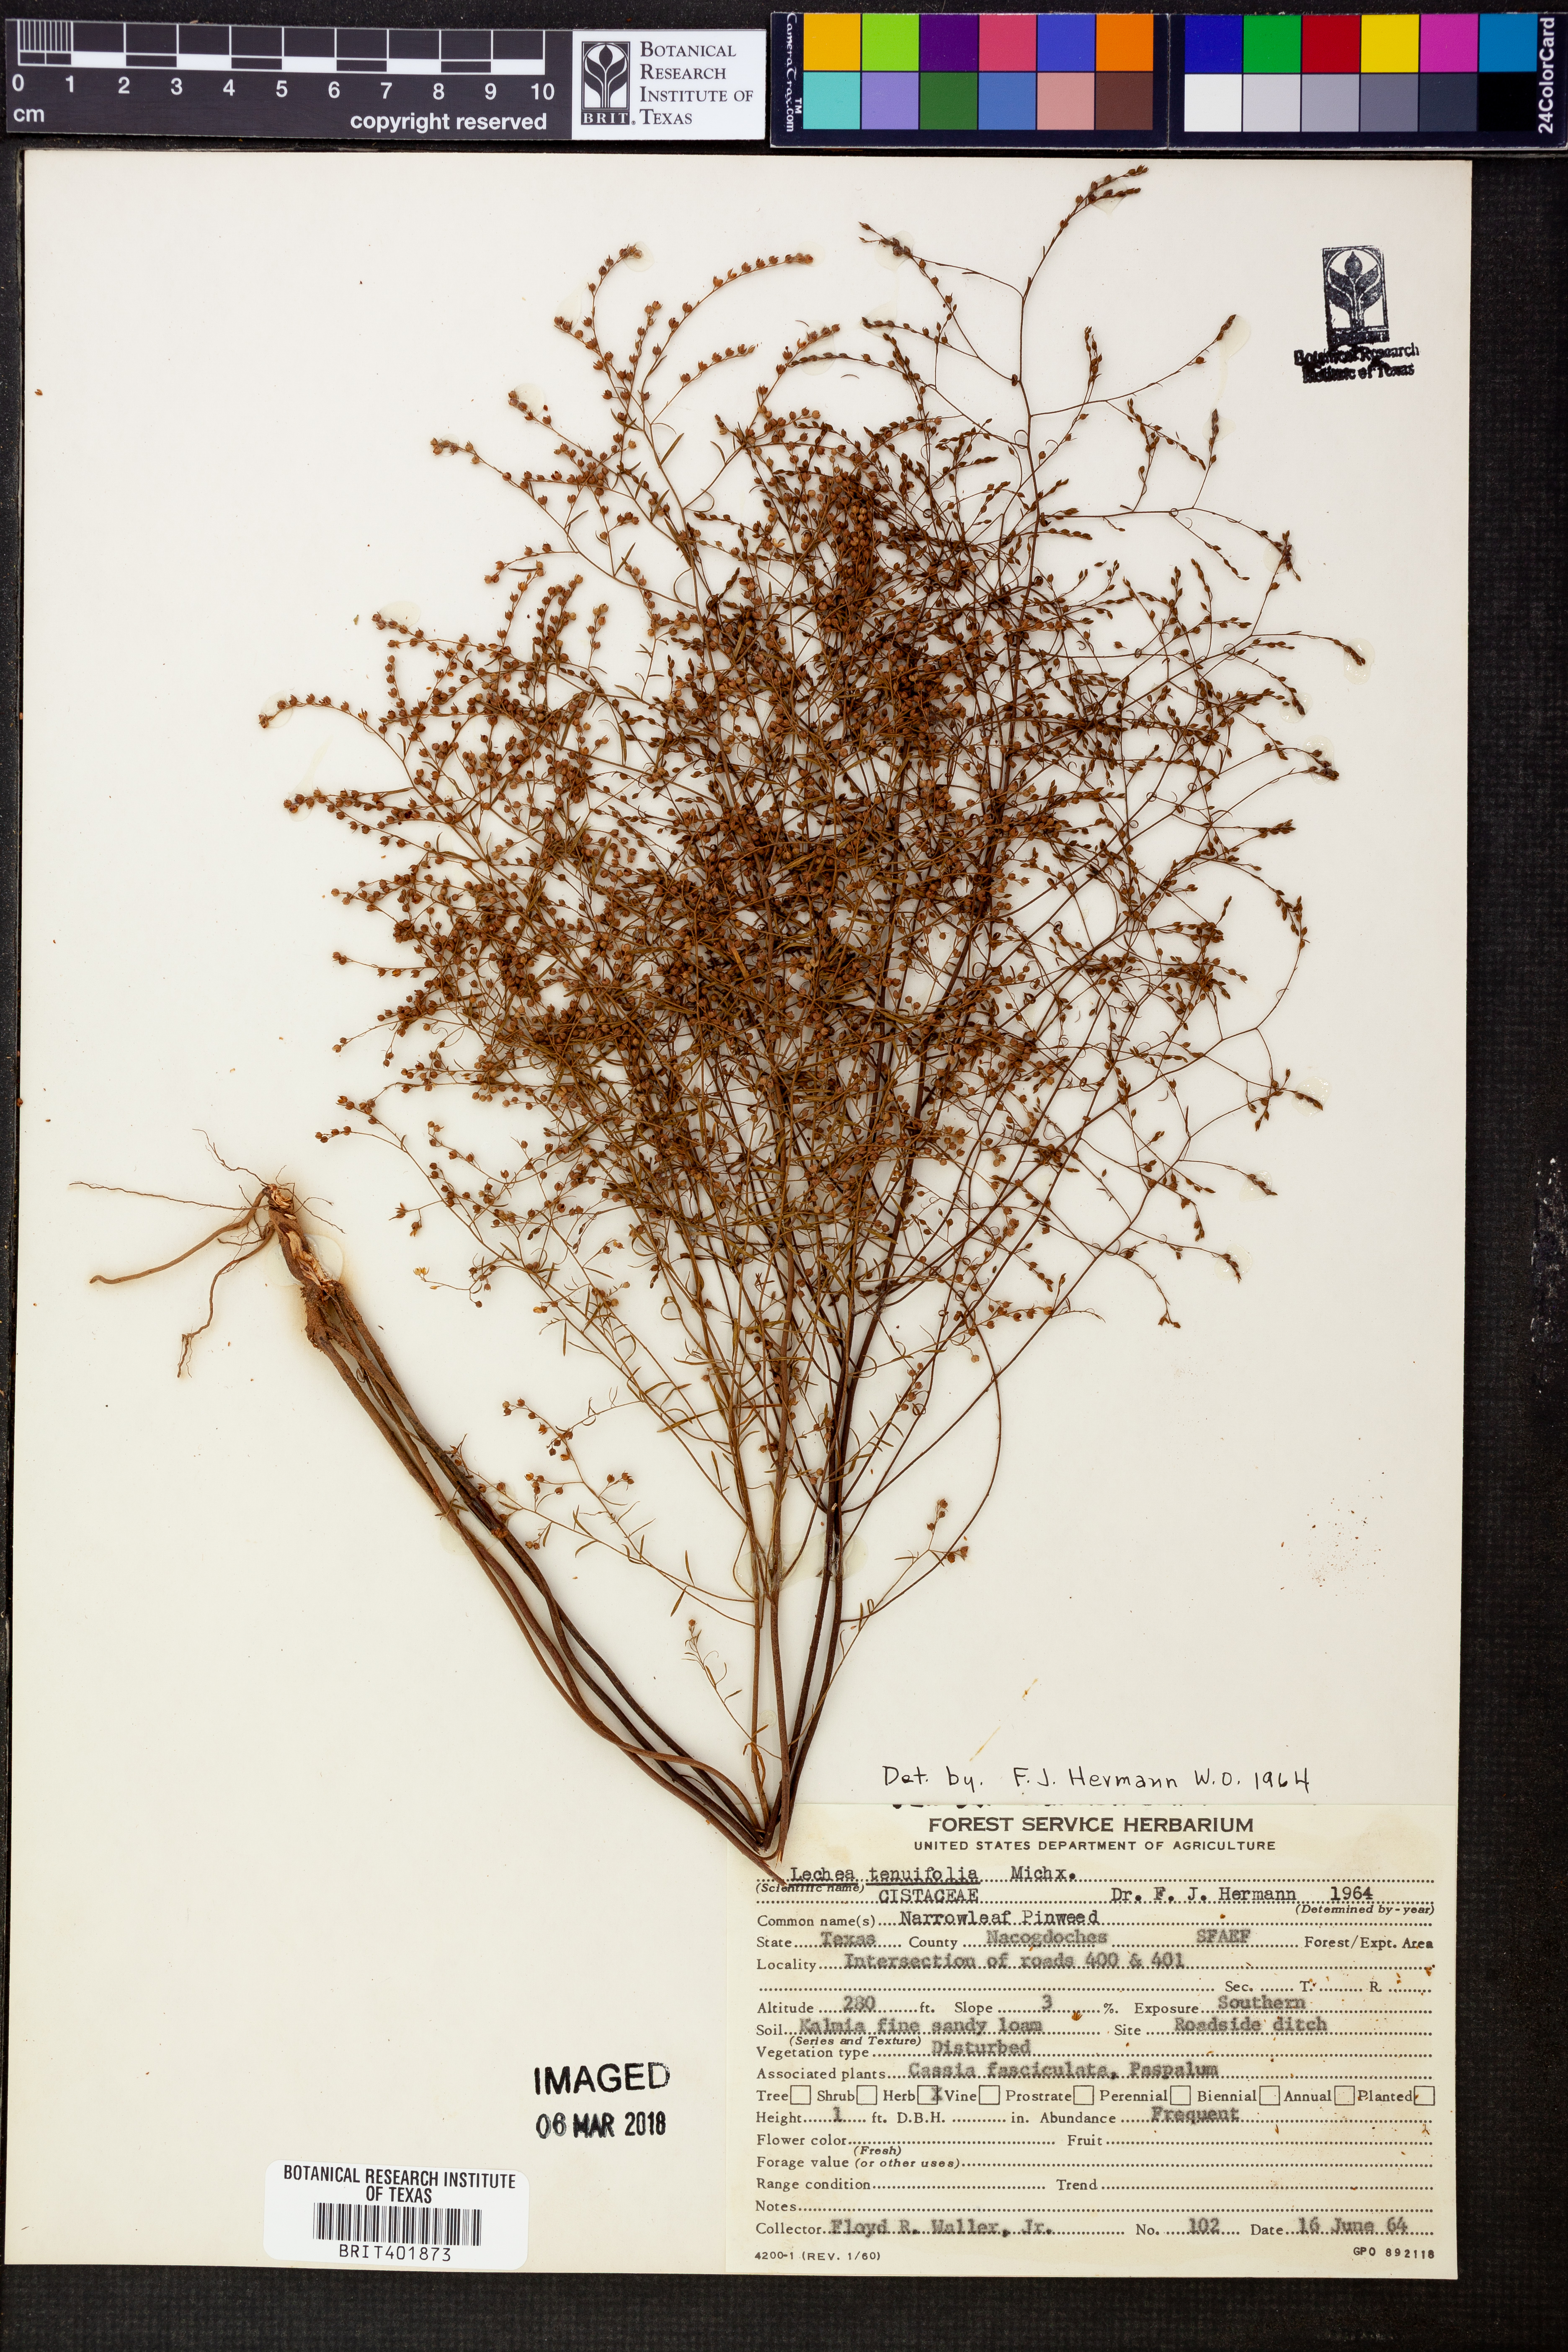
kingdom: Plantae
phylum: Tracheophyta
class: Magnoliopsida
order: Malvales
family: Cistaceae
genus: Lechea
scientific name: Lechea tenuifolia
